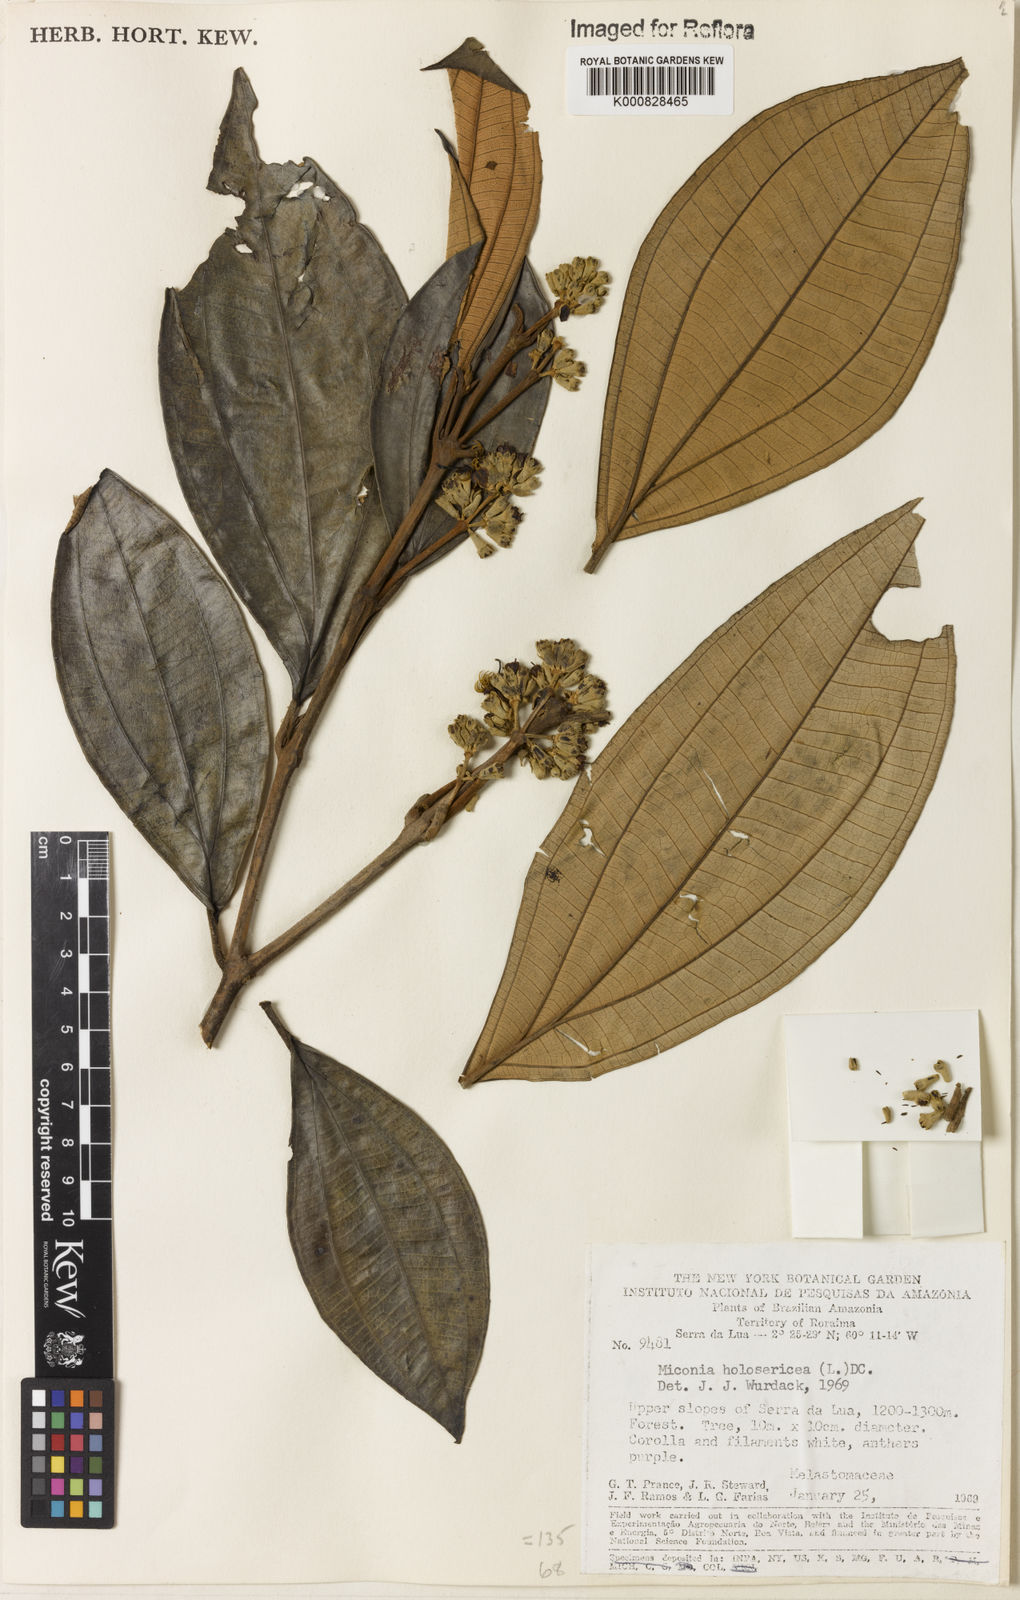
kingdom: Plantae
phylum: Tracheophyta
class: Magnoliopsida
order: Myrtales
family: Melastomataceae
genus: Miconia
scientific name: Miconia holosericea
